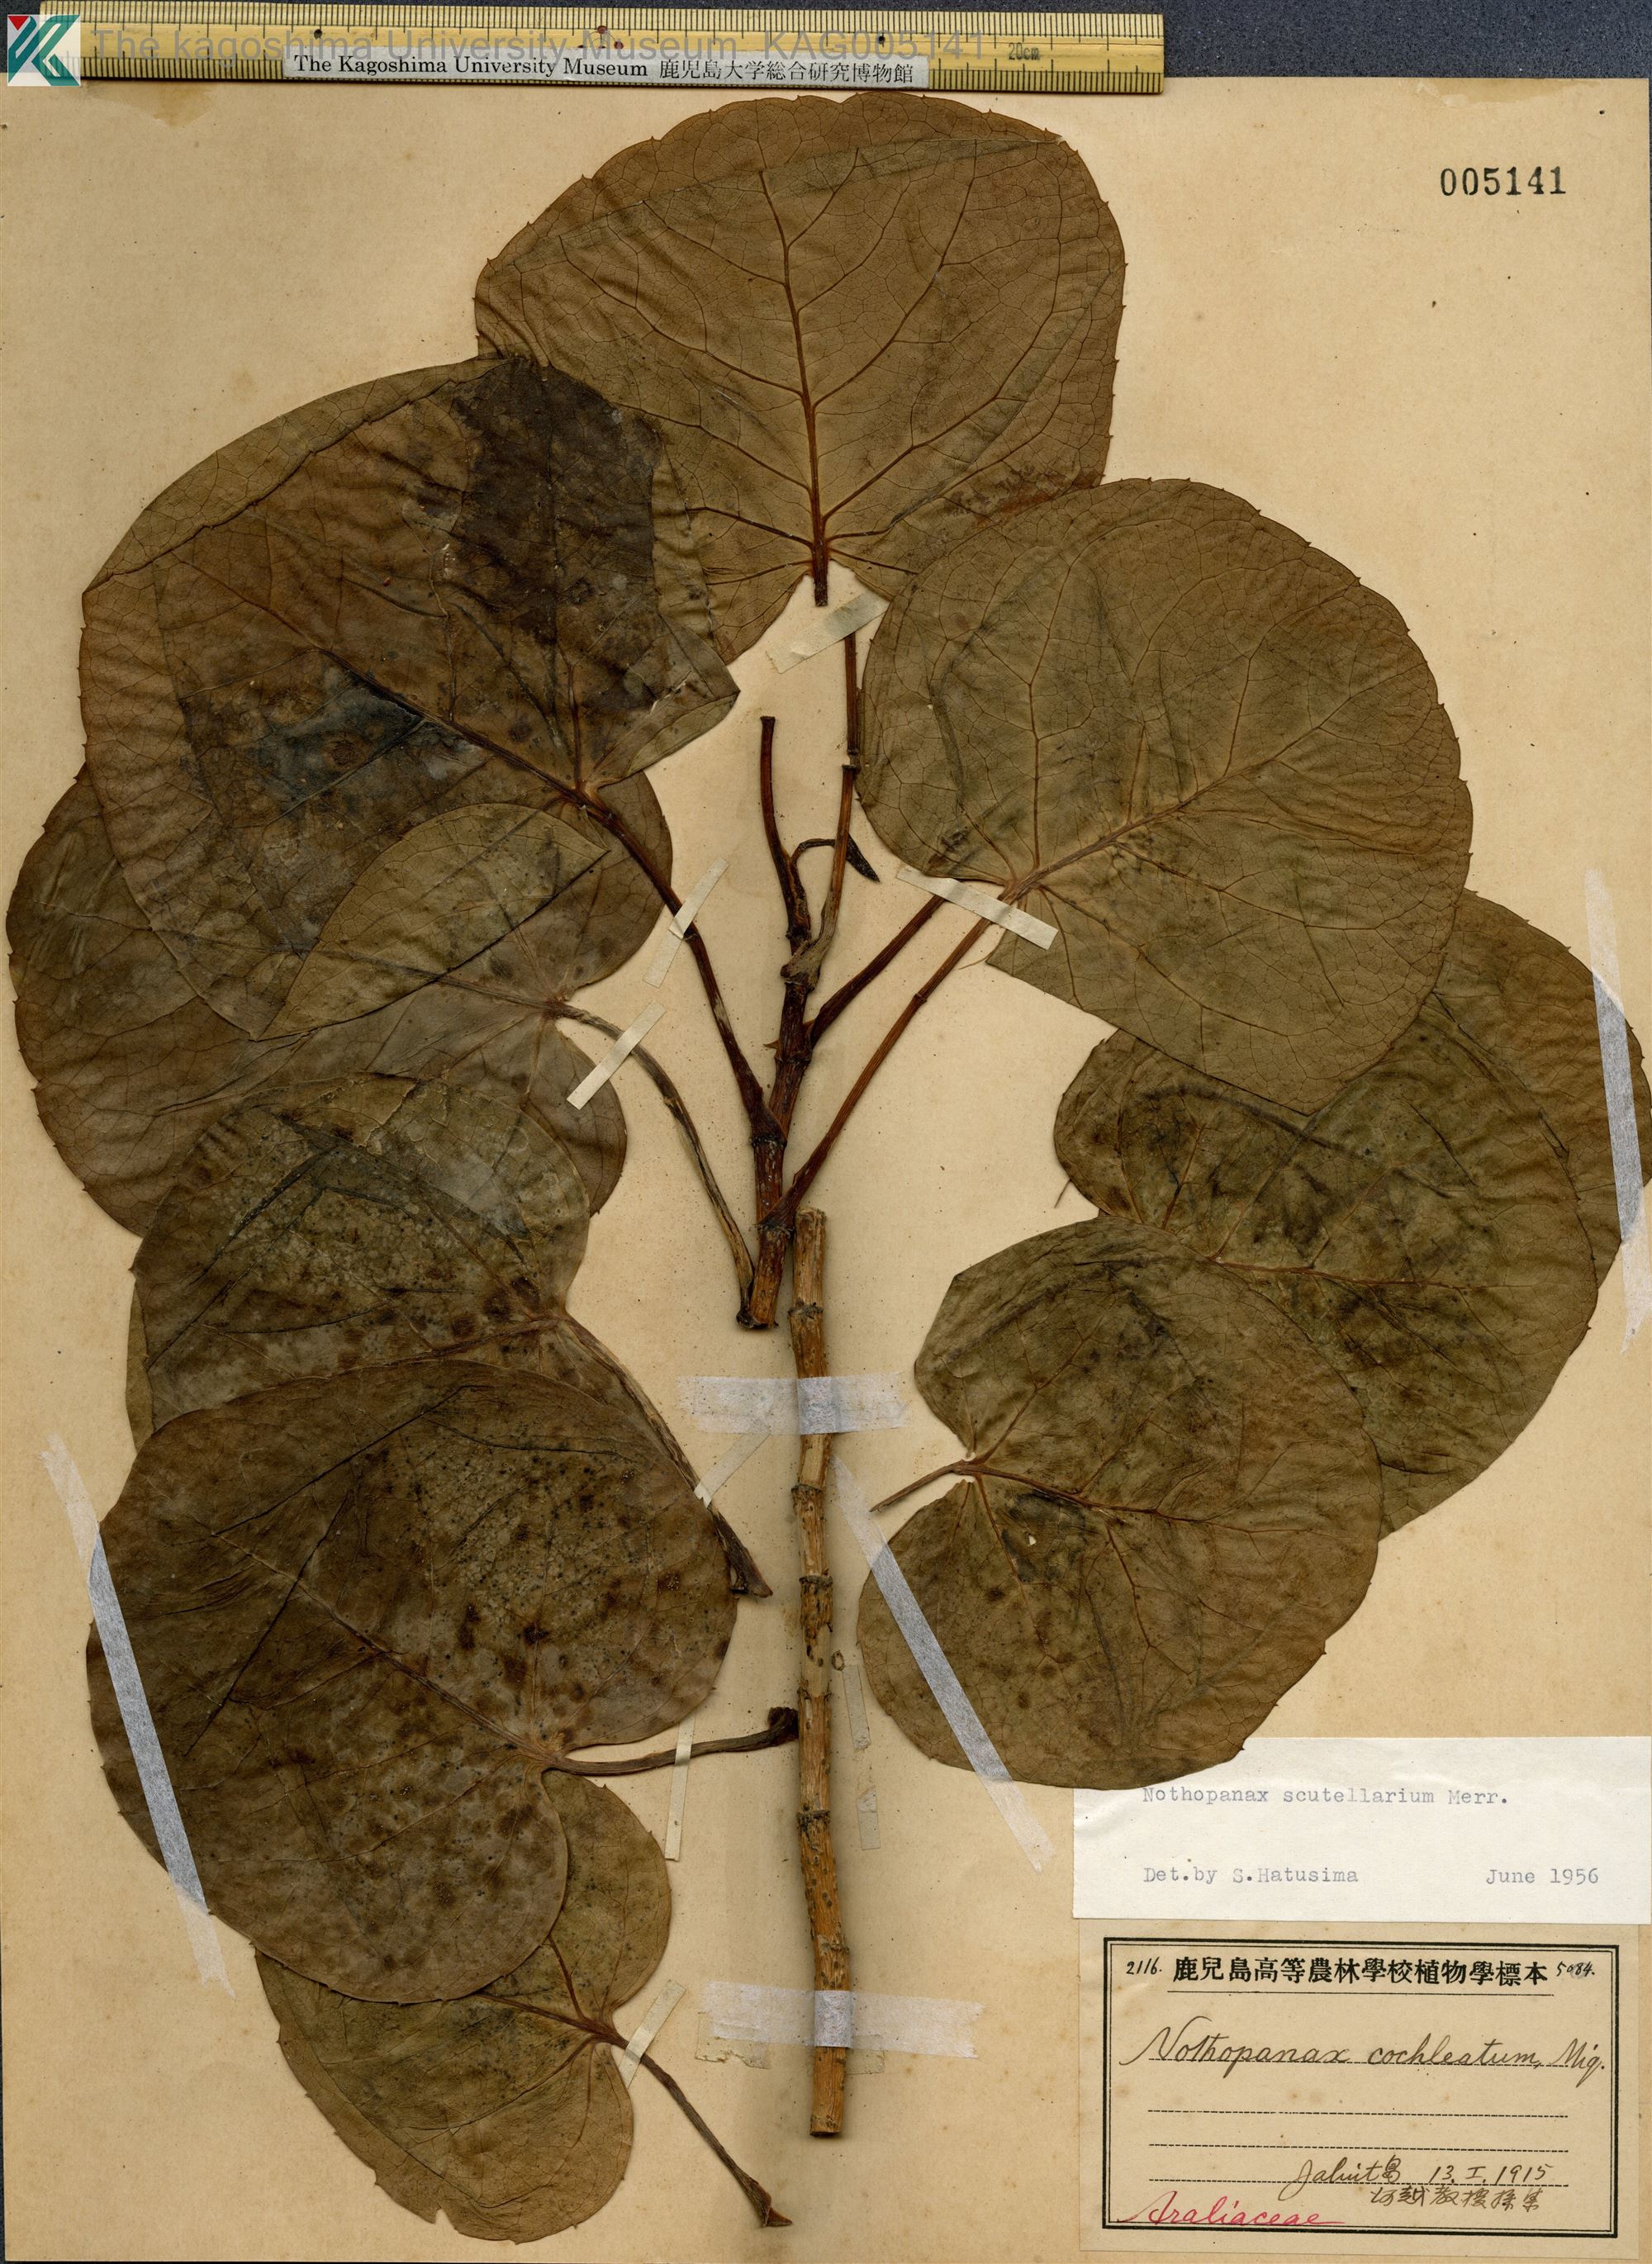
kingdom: Plantae
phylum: Tracheophyta
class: Magnoliopsida
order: Apiales
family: Araliaceae
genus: Polyscias
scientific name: Polyscias scutellaria
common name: Dinnerplate-aralia
